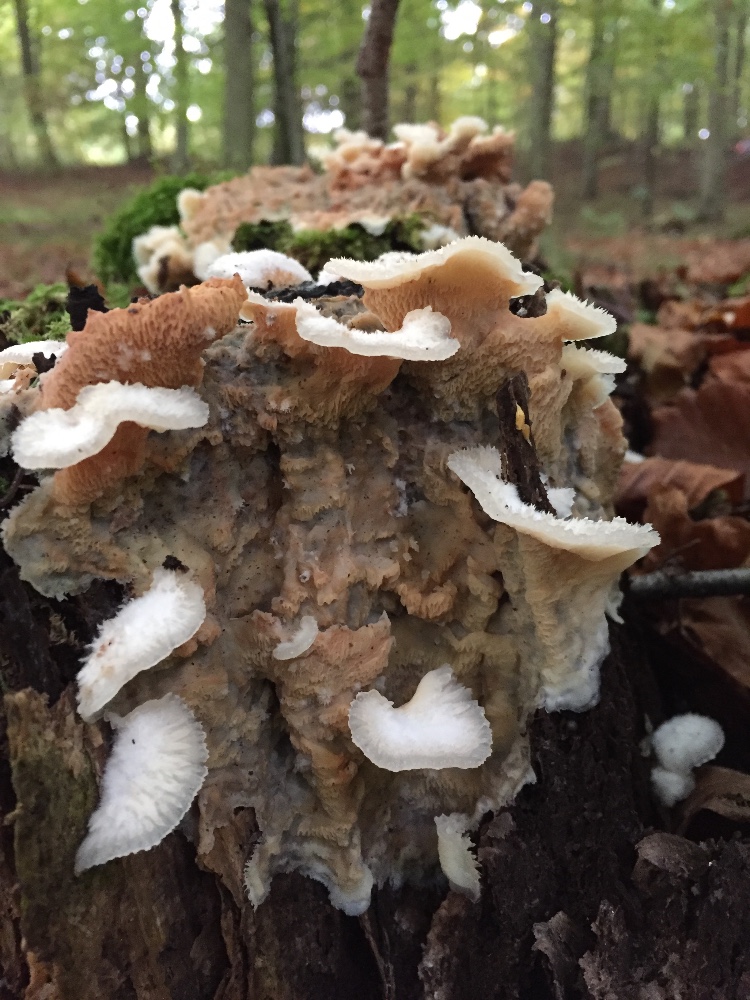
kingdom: Fungi
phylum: Basidiomycota
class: Agaricomycetes
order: Polyporales
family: Meruliaceae
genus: Phlebia
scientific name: Phlebia tremellosa
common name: bævrende åresvamp
